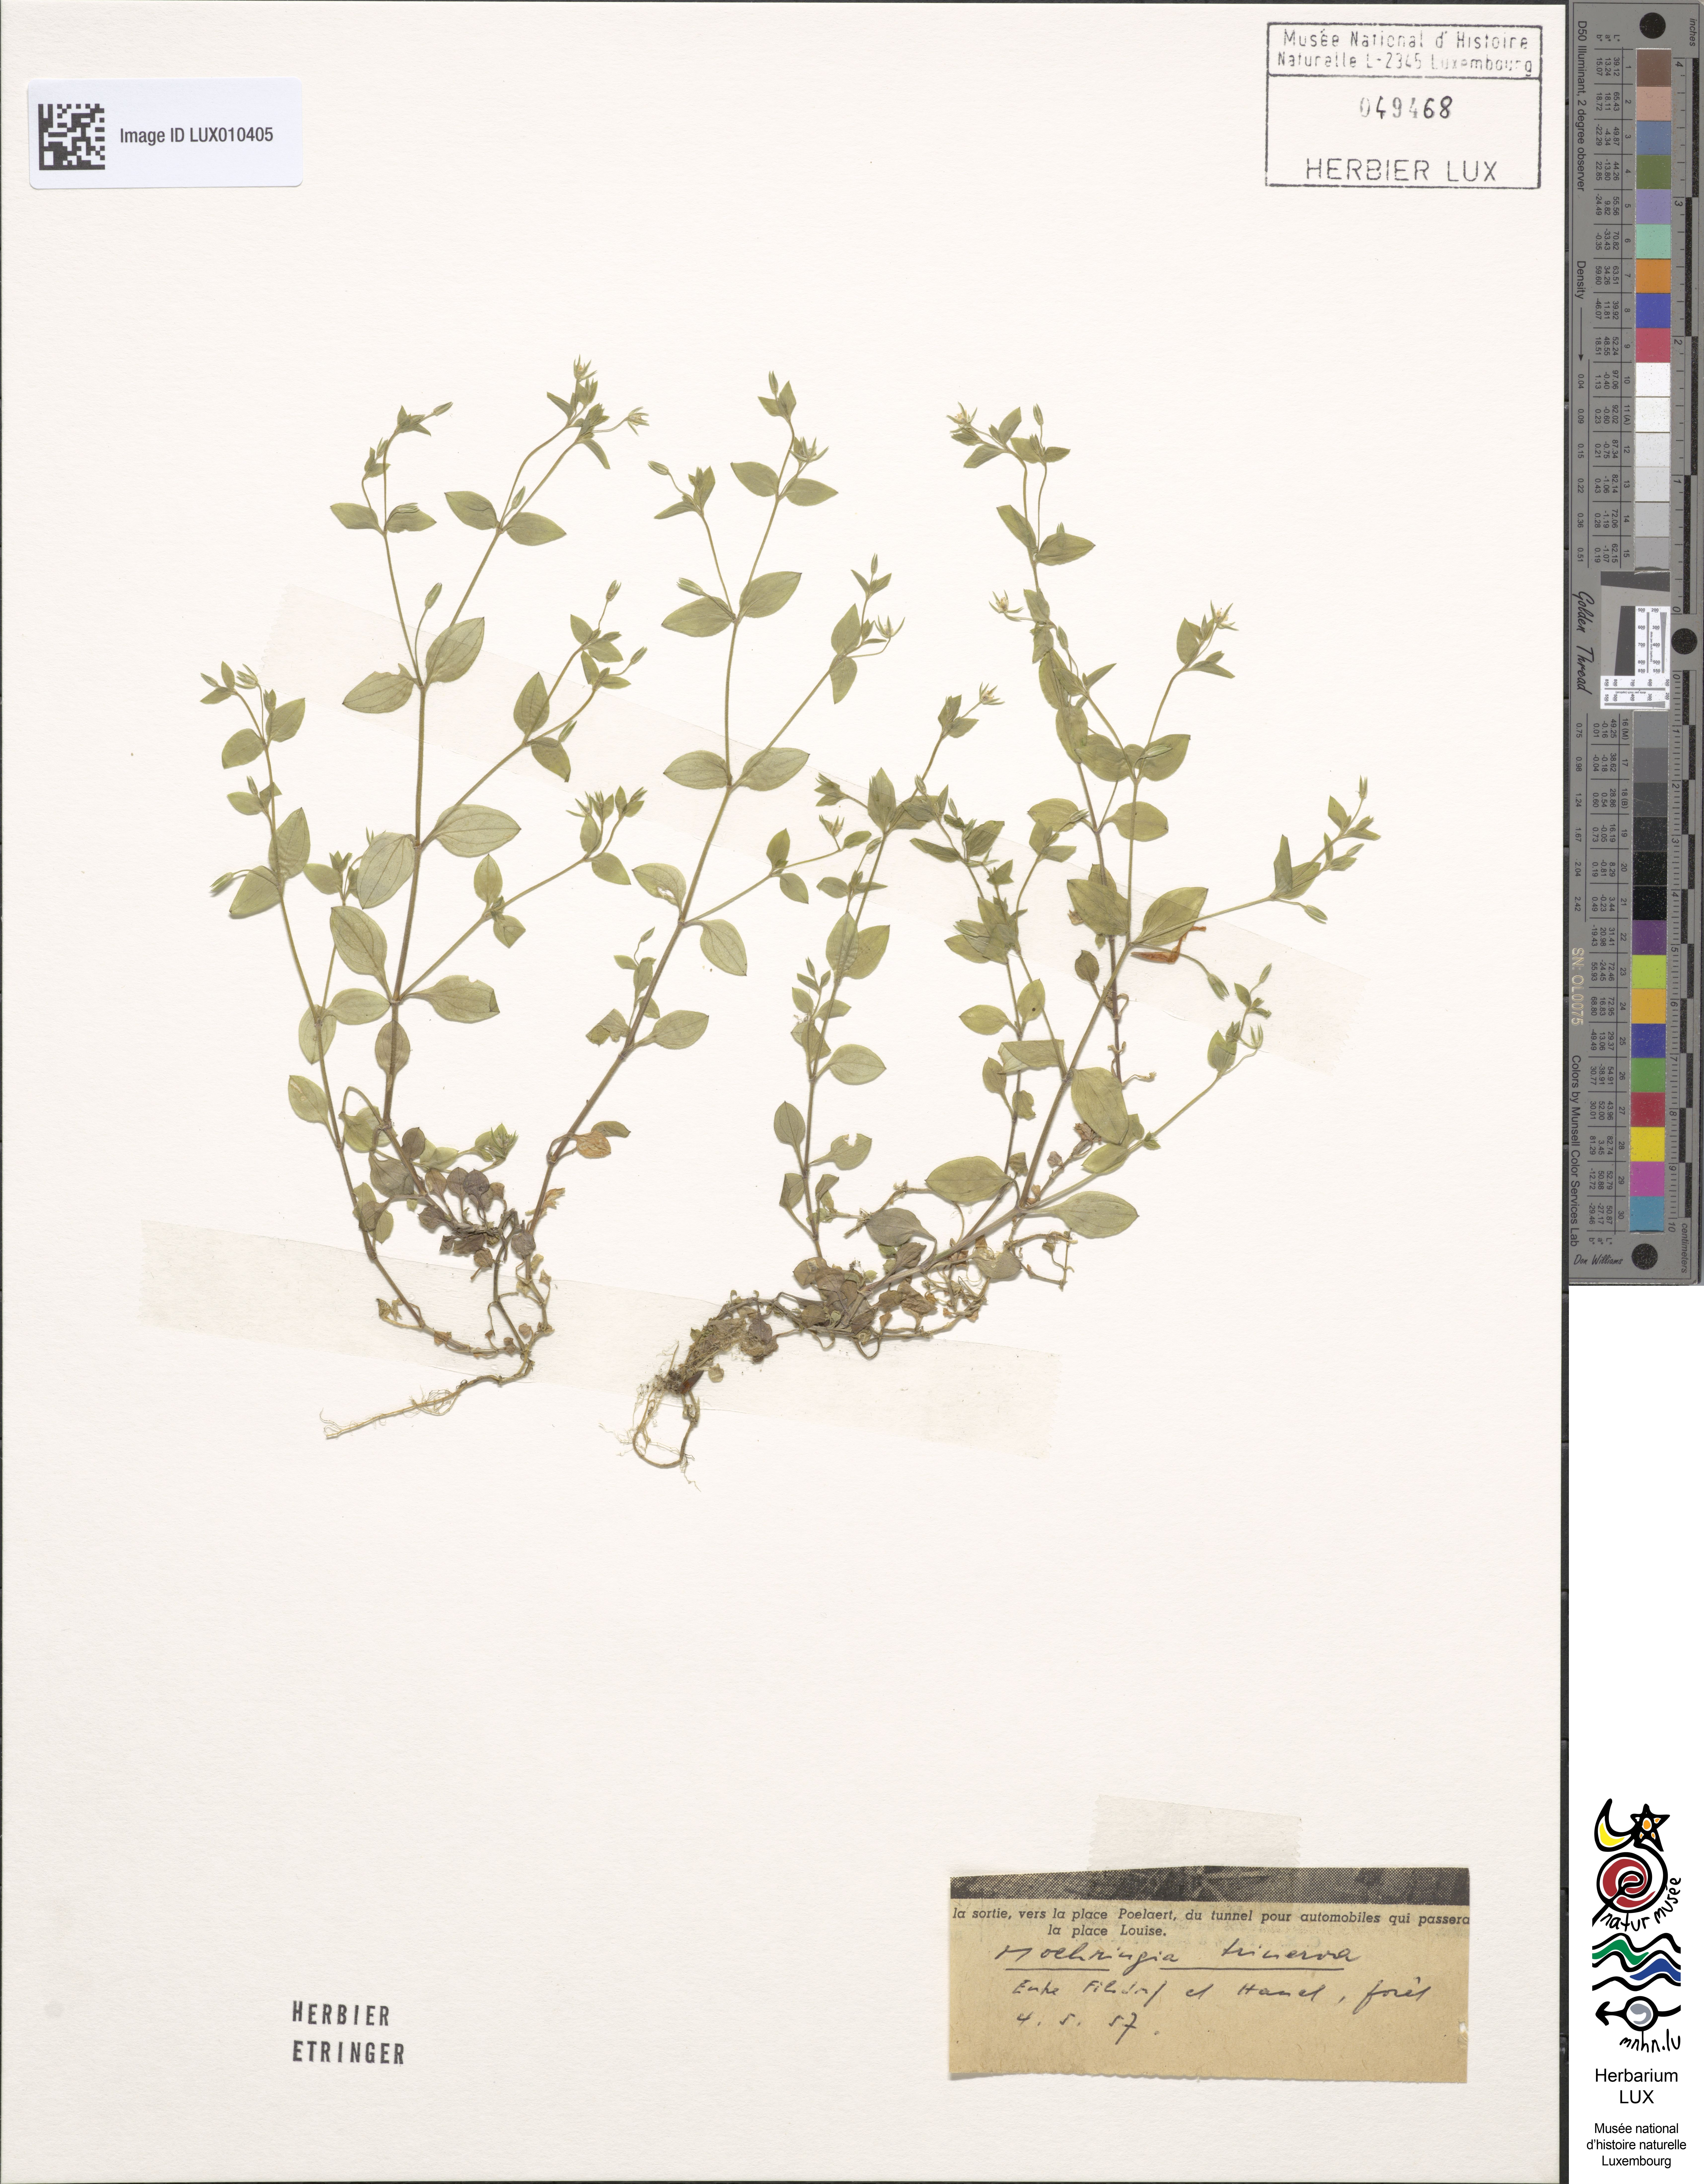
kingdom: Plantae
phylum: Tracheophyta
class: Magnoliopsida
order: Caryophyllales
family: Caryophyllaceae
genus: Moehringia
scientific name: Moehringia trinervia
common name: Three-nerved sandwort
